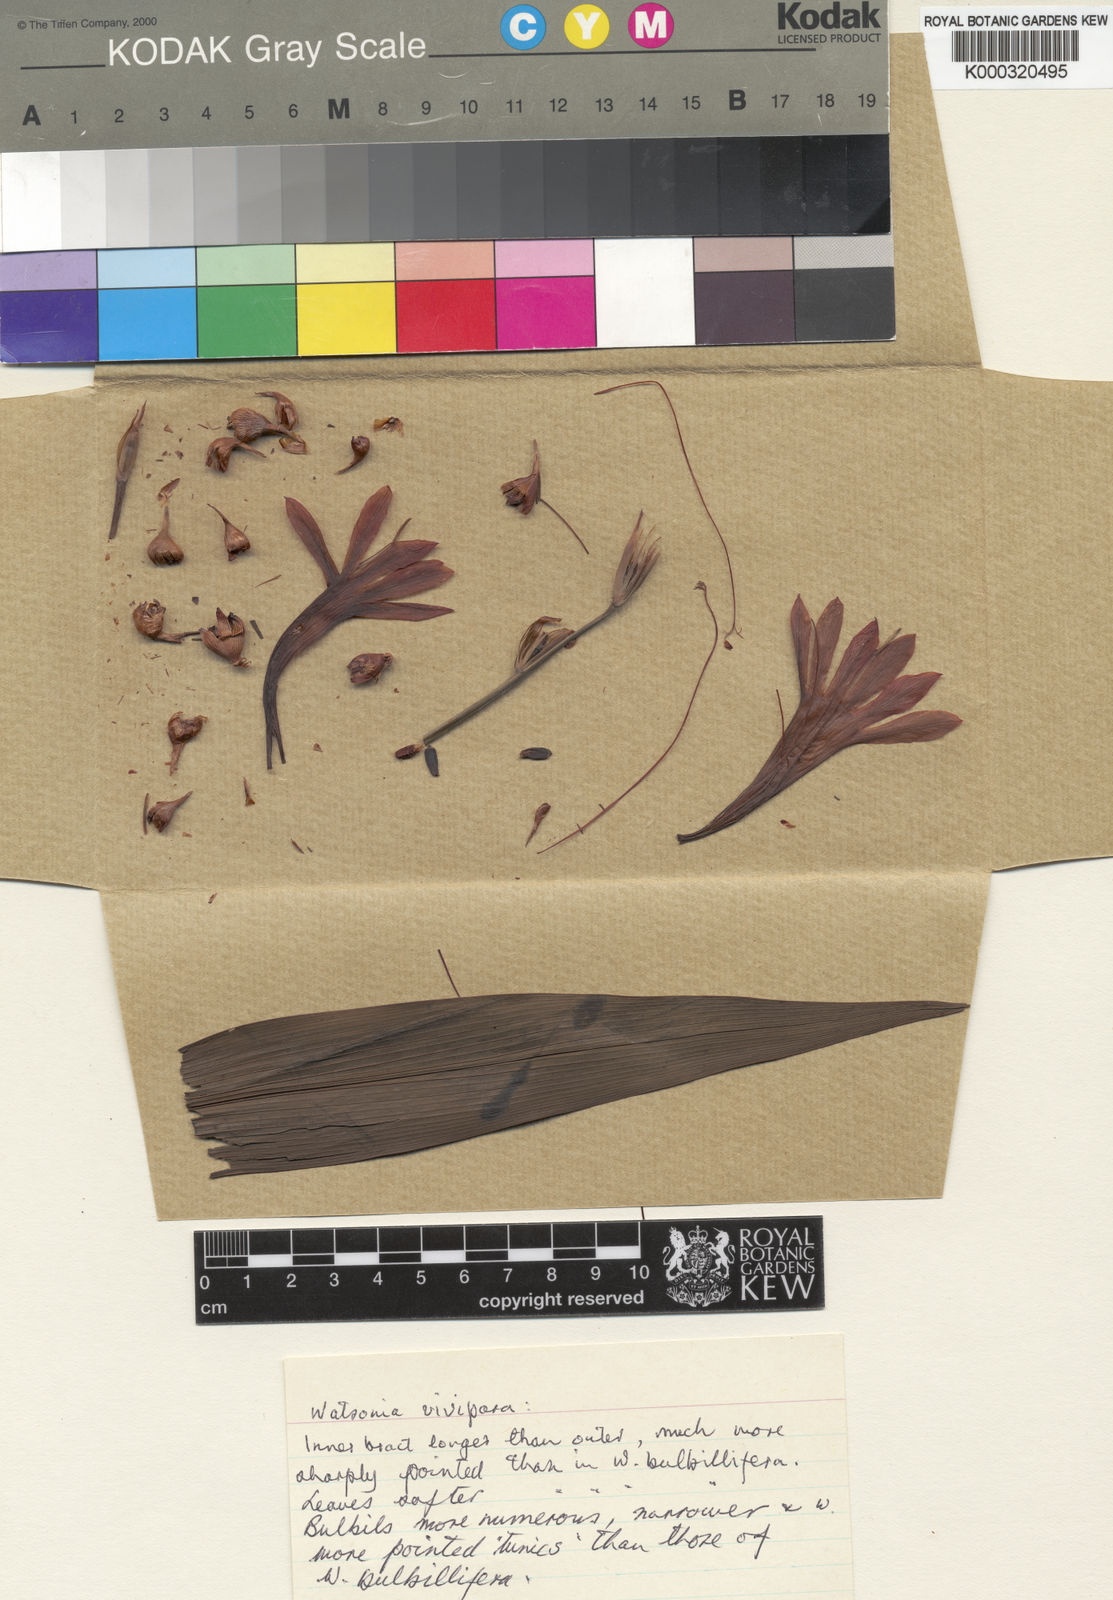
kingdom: Plantae
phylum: Tracheophyta
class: Liliopsida
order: Asparagales
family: Iridaceae
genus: Watsonia
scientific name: Watsonia meriana
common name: Bulbil bugle-lily
